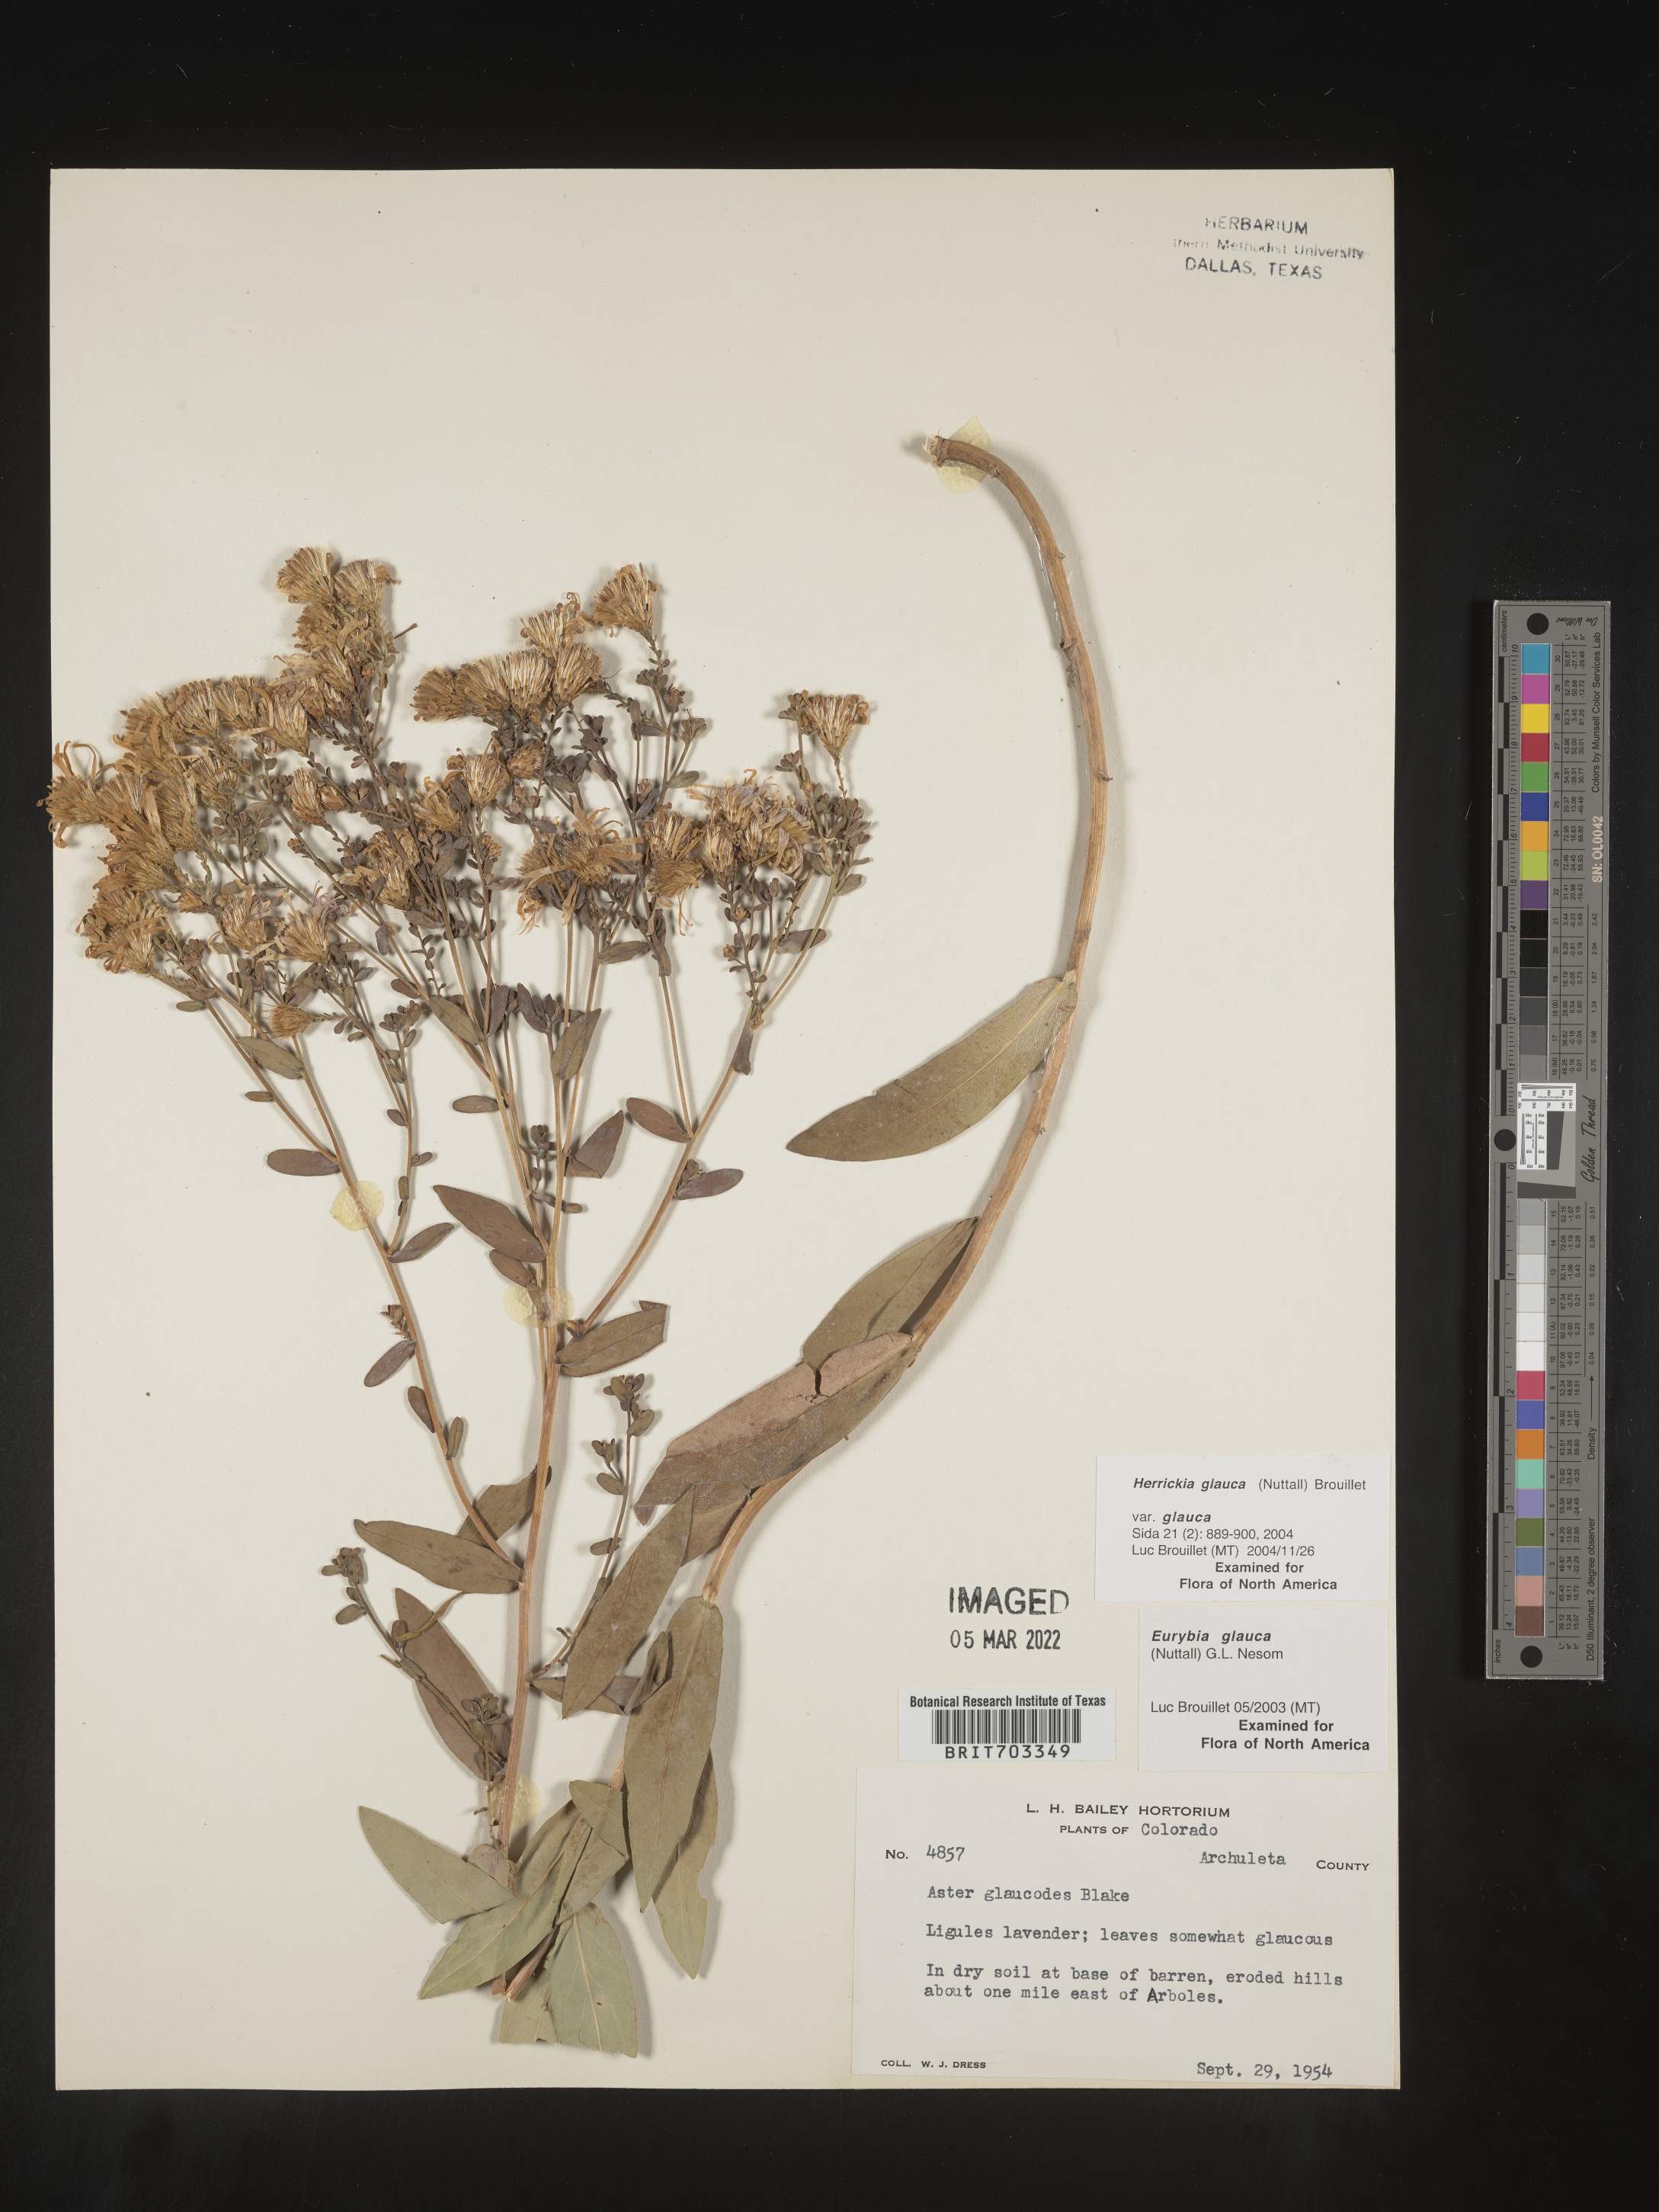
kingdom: Plantae
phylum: Tracheophyta
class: Magnoliopsida
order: Asterales
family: Asteraceae
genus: Eurybia
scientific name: Eurybia glauca
